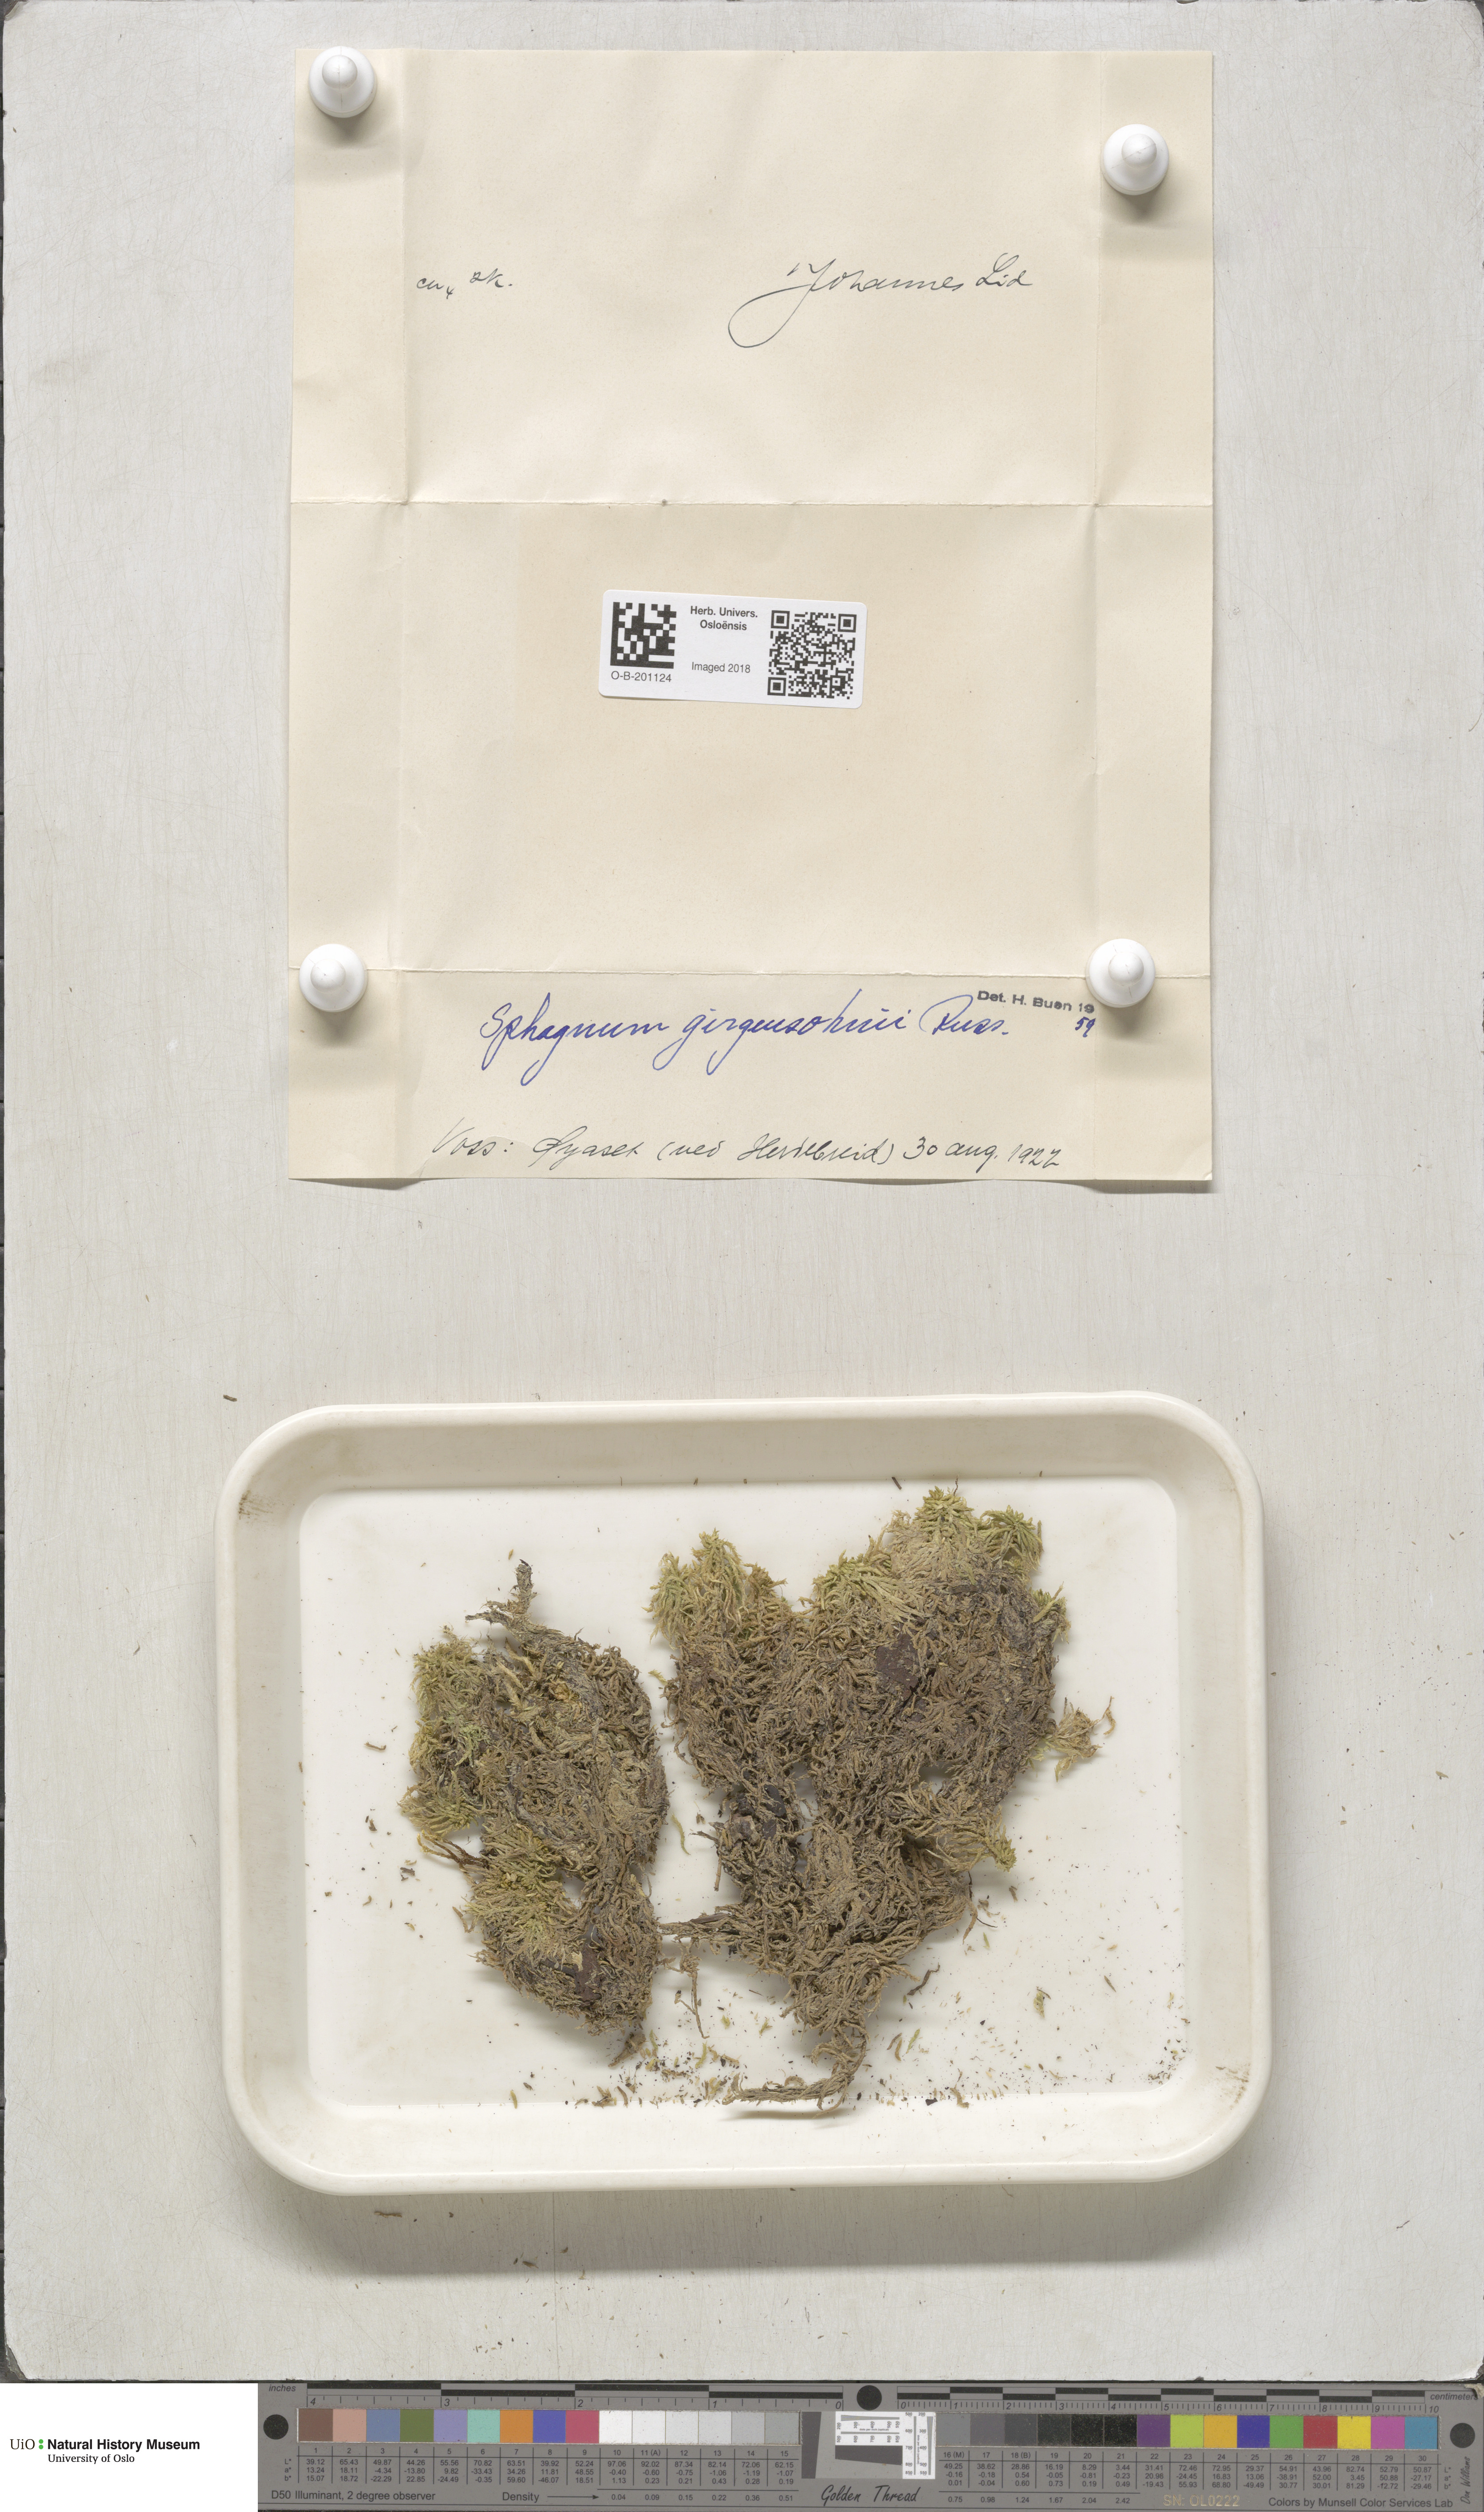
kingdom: Plantae
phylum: Bryophyta
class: Sphagnopsida
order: Sphagnales
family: Sphagnaceae
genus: Sphagnum
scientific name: Sphagnum girgensohnii
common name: Girgensohn's peat moss
